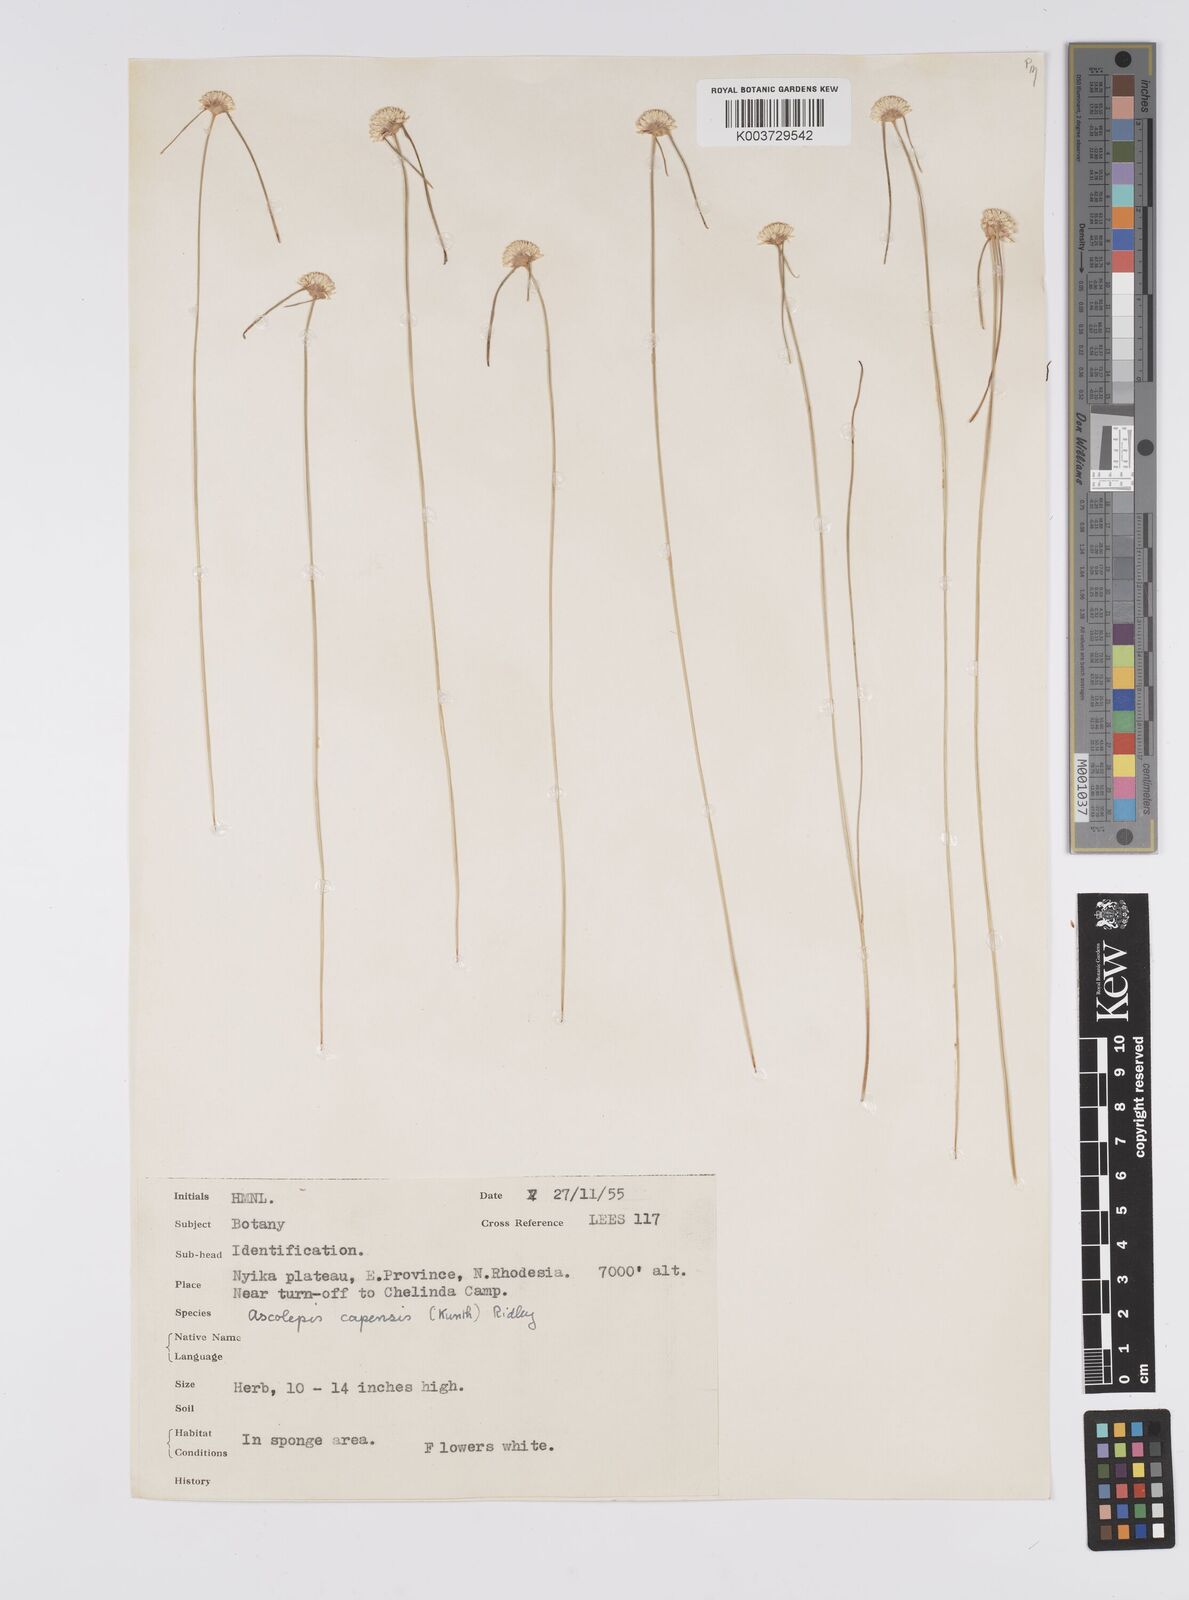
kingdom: Plantae
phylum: Tracheophyta
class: Liliopsida
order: Poales
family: Cyperaceae
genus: Cyperus
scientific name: Cyperus ascocapensis
